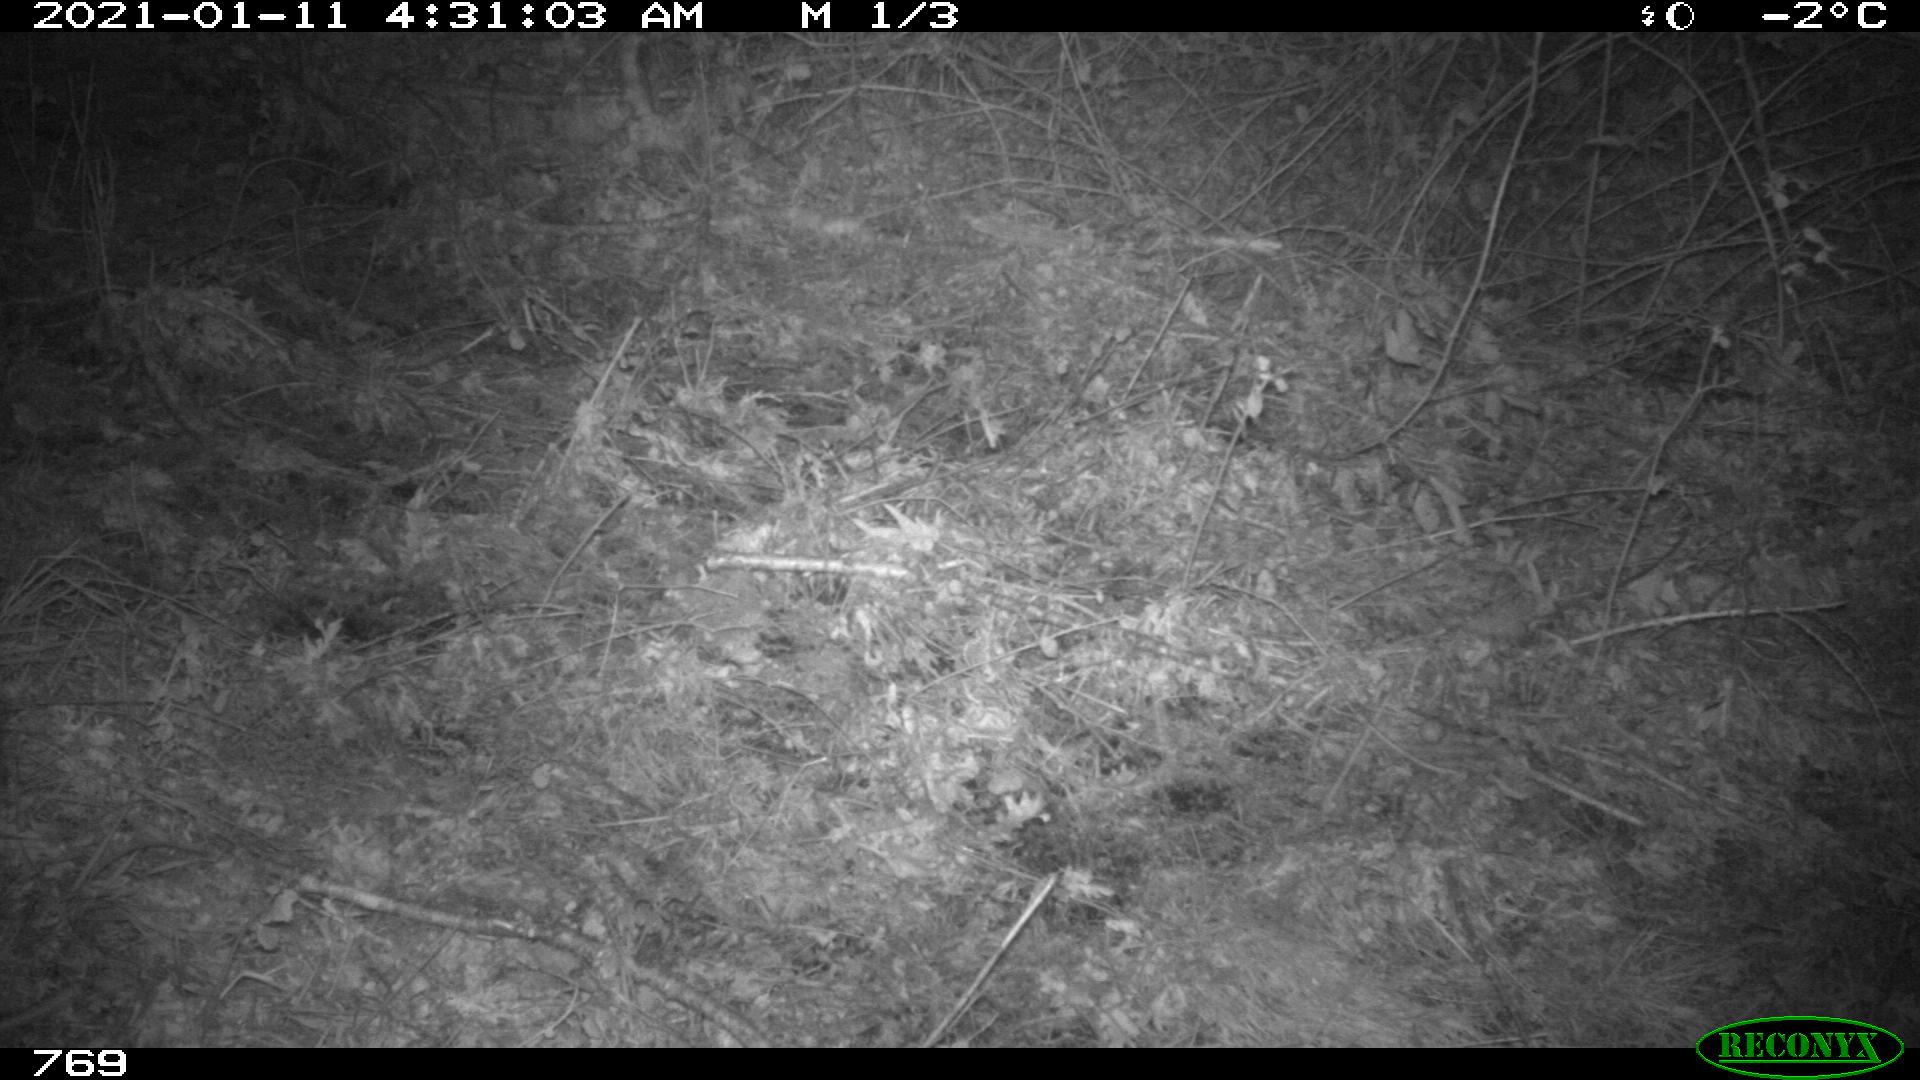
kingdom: Animalia
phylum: Chordata
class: Mammalia
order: Artiodactyla
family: Cervidae
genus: Capreolus
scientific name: Capreolus capreolus
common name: Western roe deer
